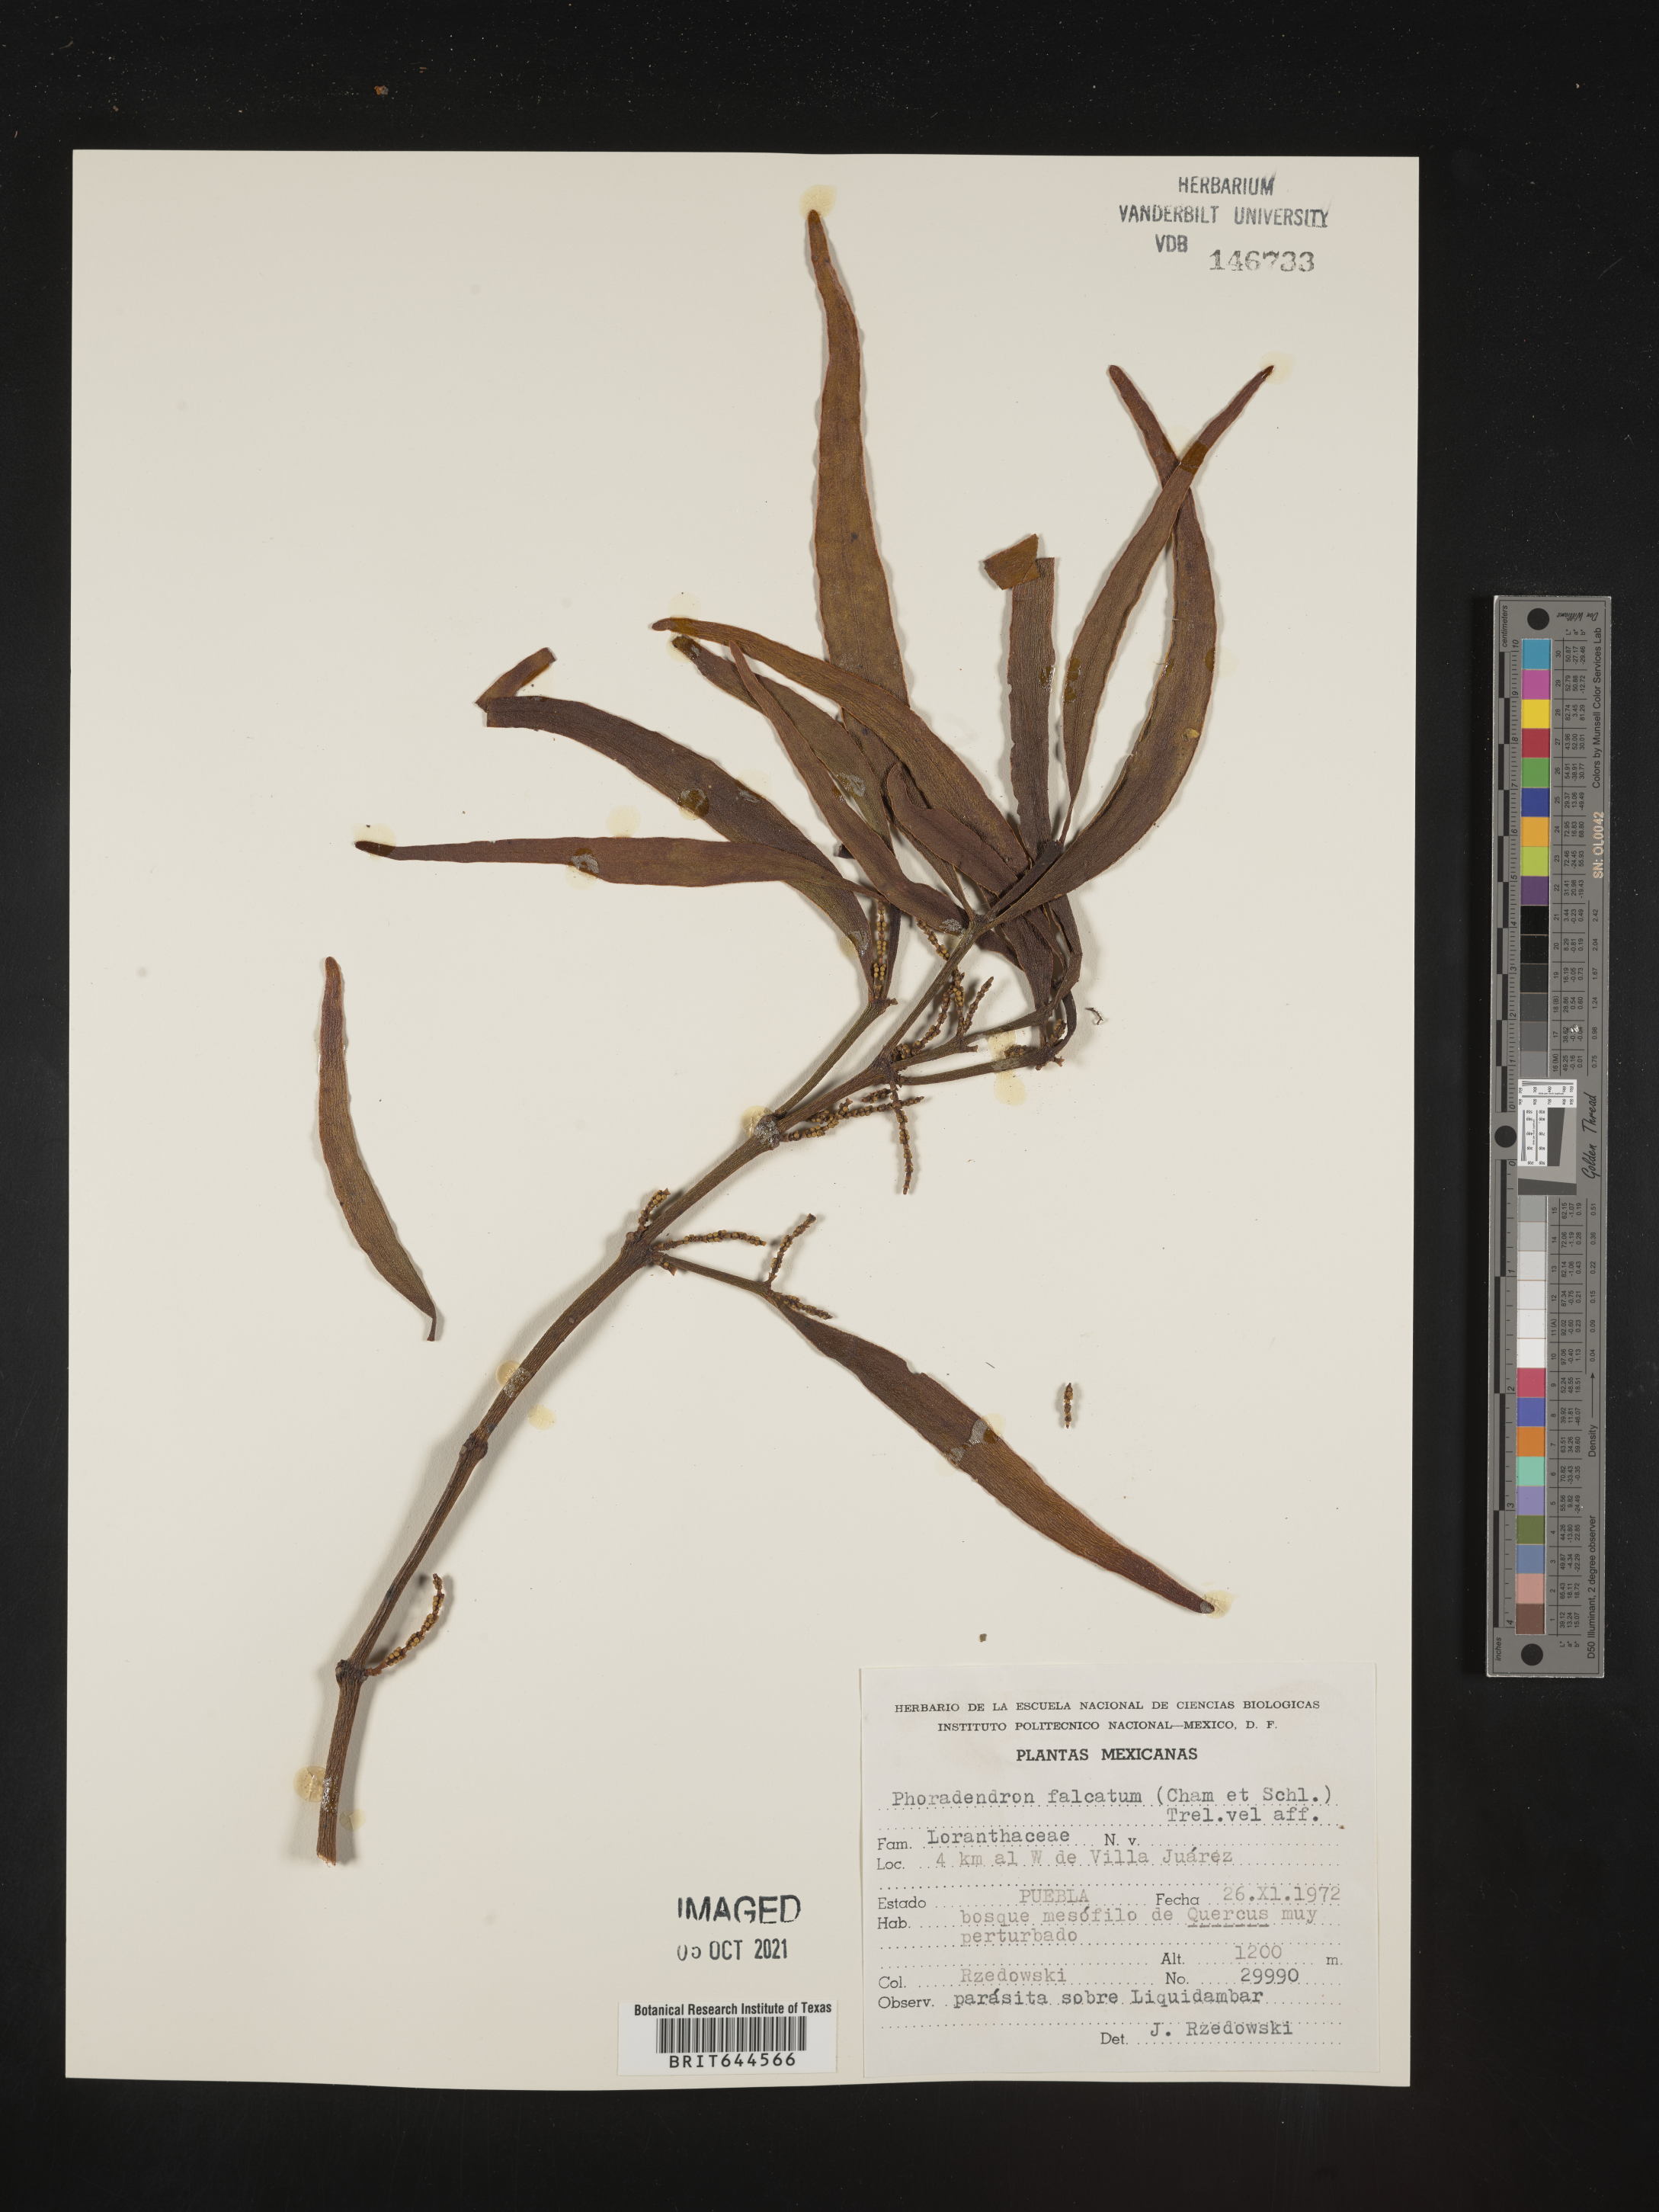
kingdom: Plantae
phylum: Tracheophyta
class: Magnoliopsida
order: Santalales
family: Viscaceae
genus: Phoradendron
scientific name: Phoradendron
